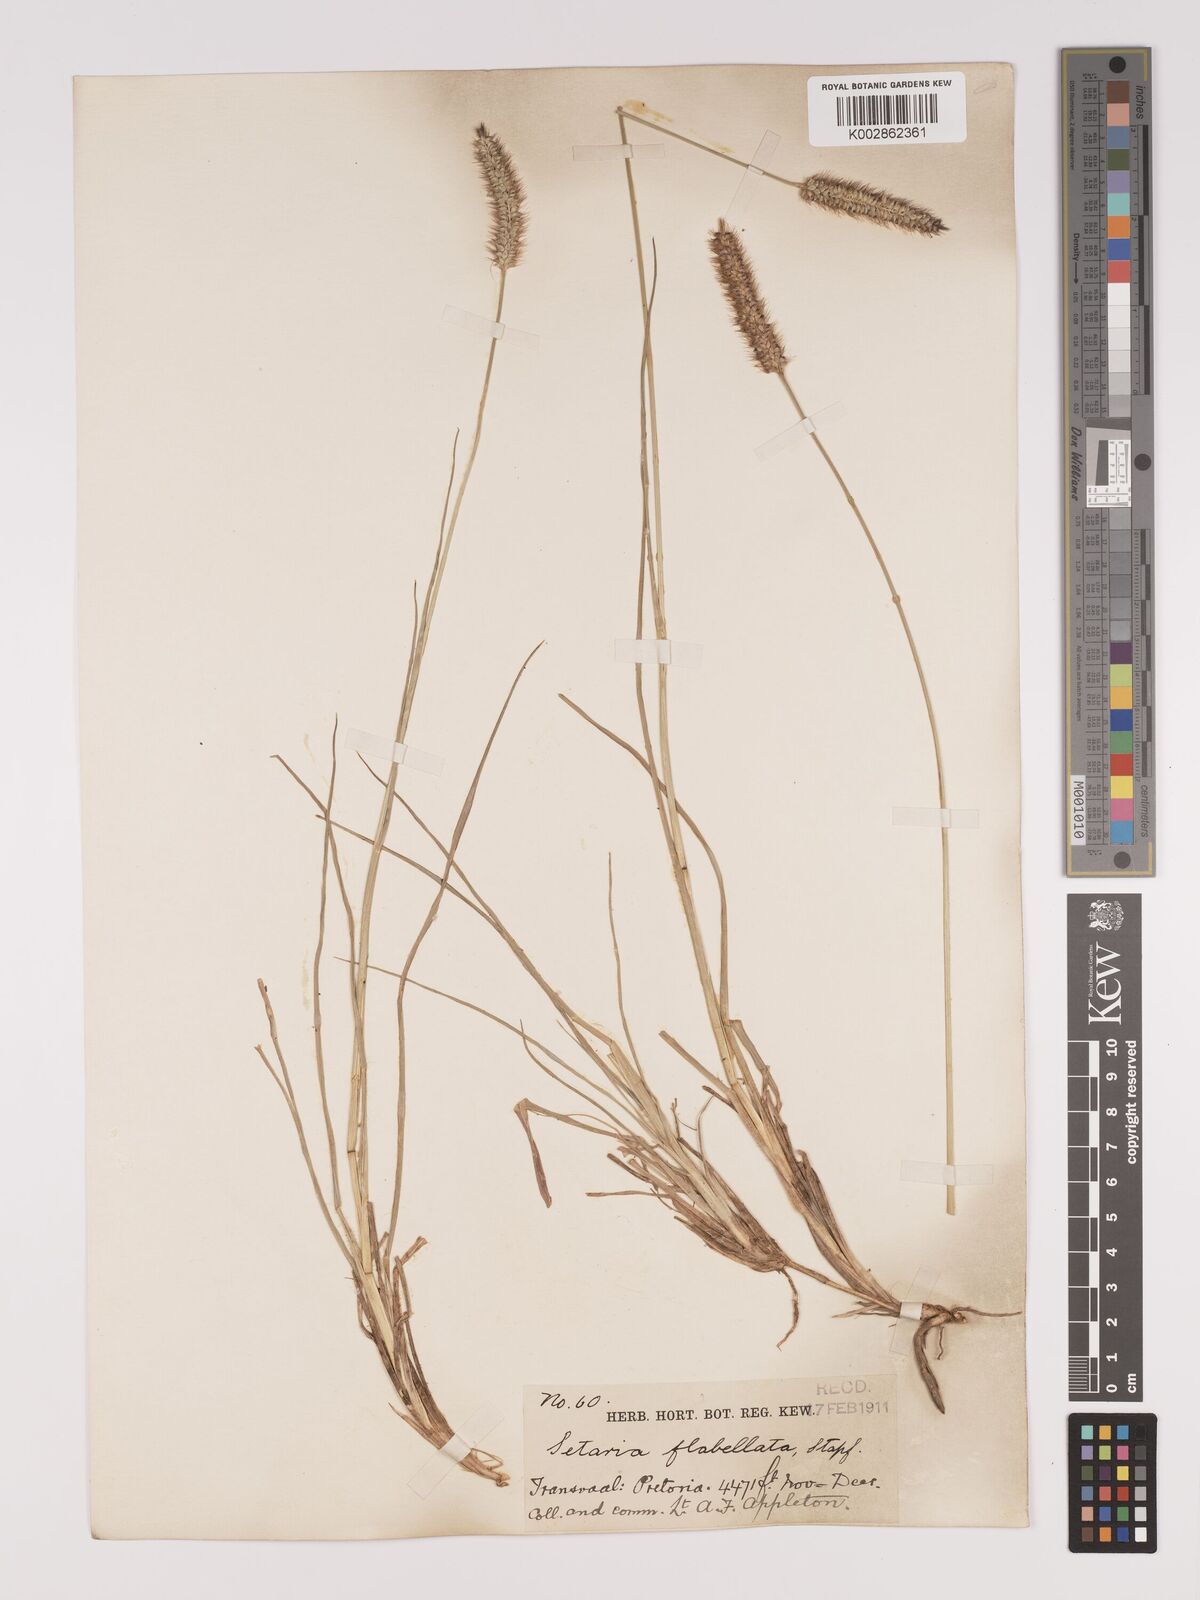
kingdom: Plantae
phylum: Tracheophyta
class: Liliopsida
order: Poales
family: Poaceae
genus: Setaria
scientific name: Setaria sphacelata
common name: African bristlegrass
